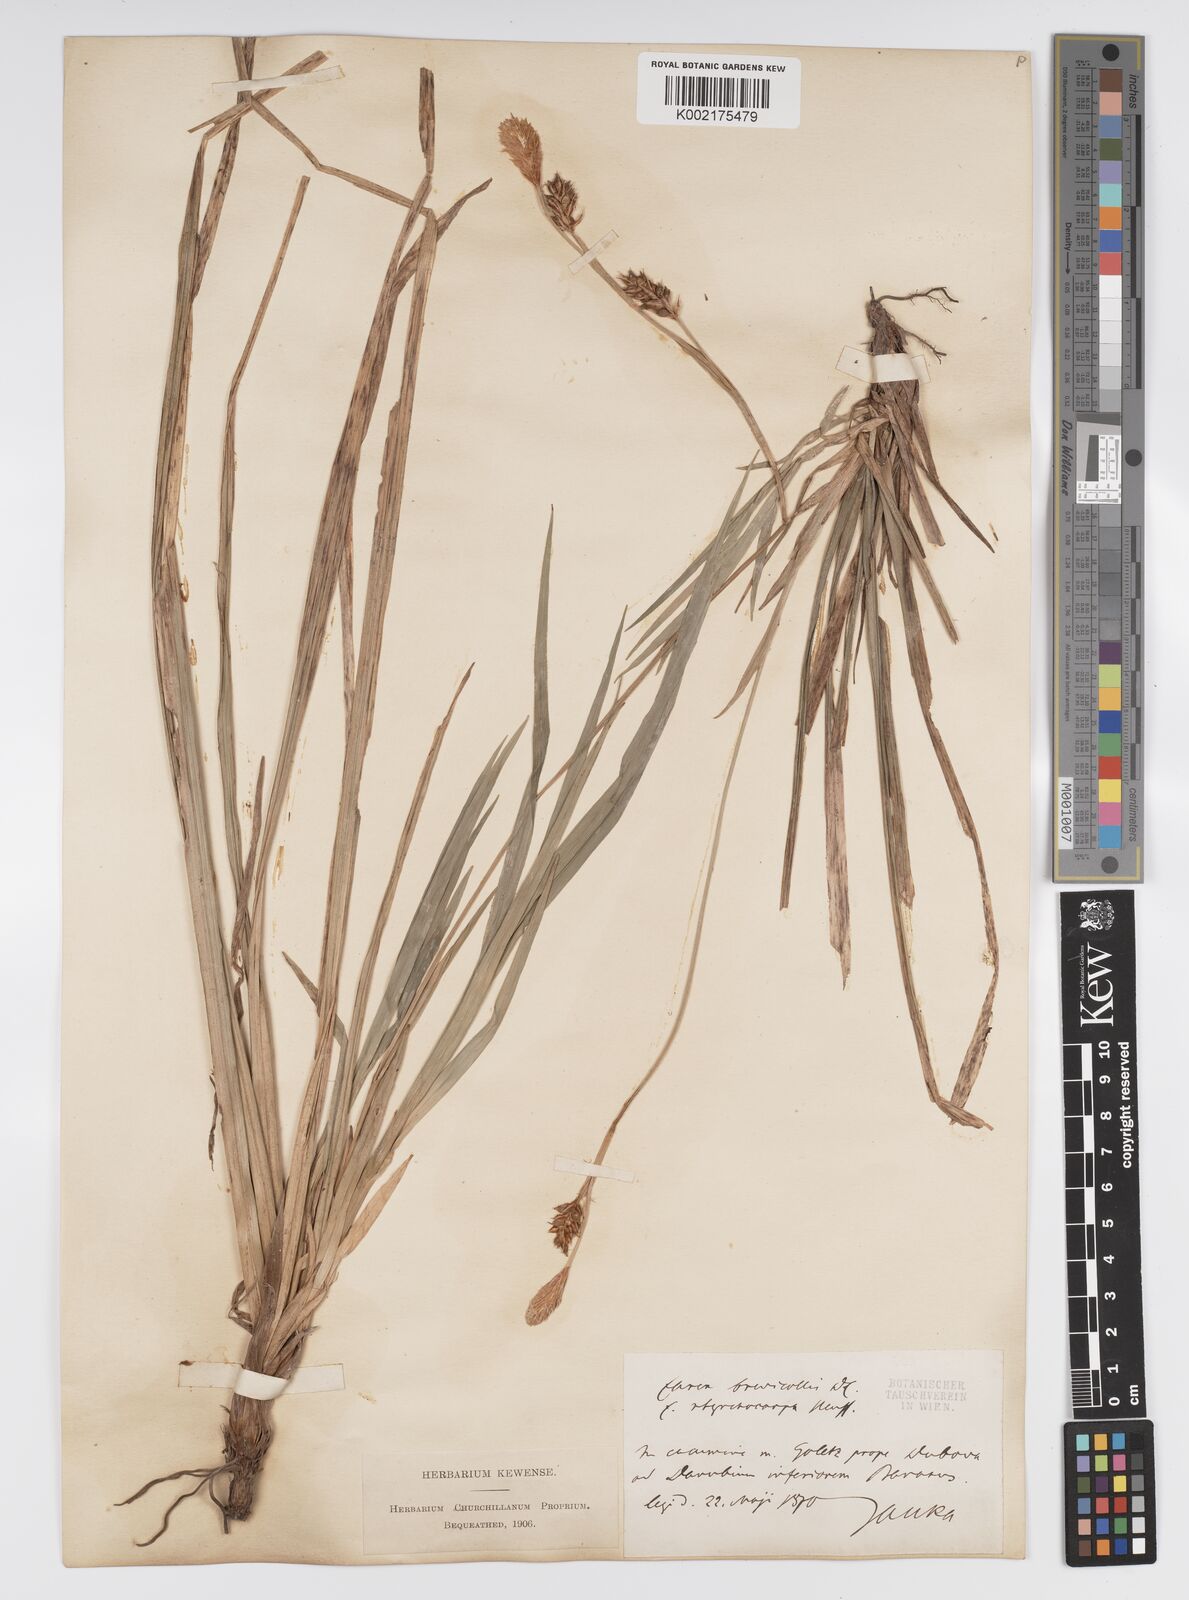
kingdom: Plantae
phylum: Tracheophyta
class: Liliopsida
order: Poales
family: Cyperaceae
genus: Carex
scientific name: Carex brevicollis
